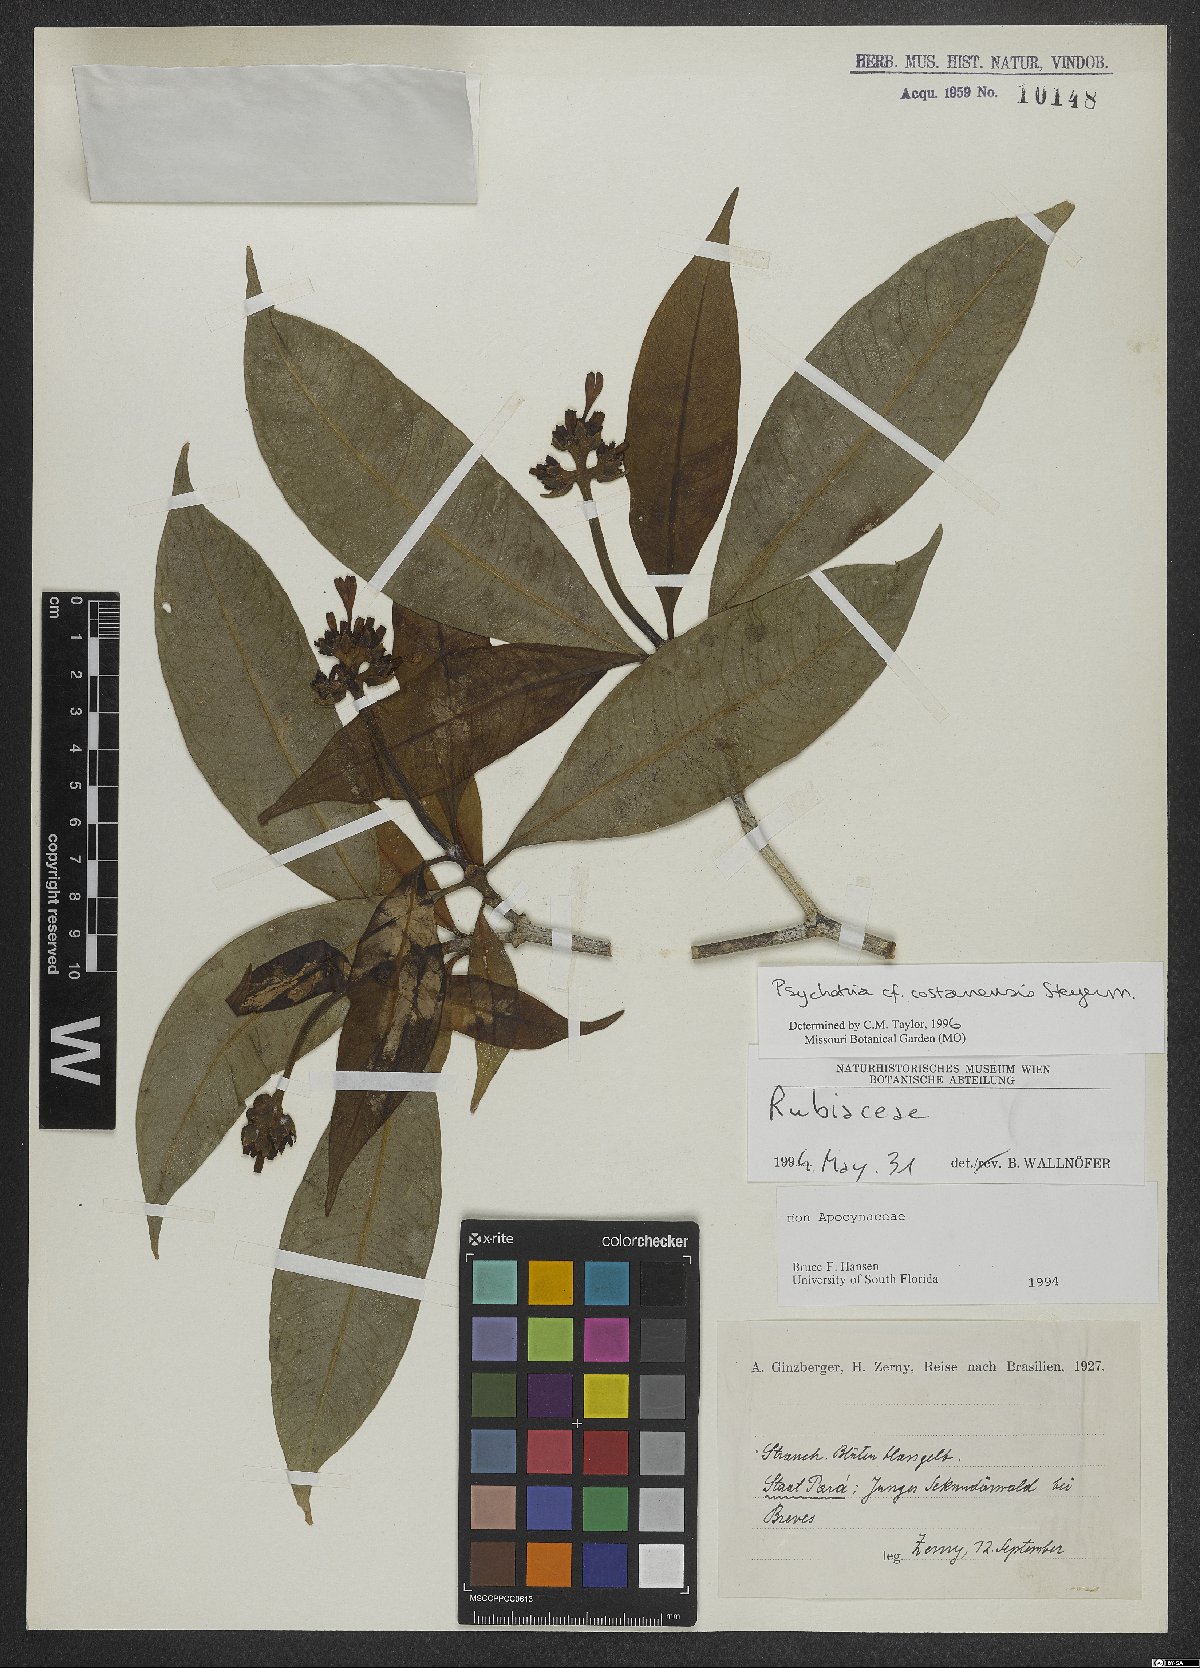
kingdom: Plantae
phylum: Tracheophyta
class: Magnoliopsida
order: Gentianales
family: Rubiaceae
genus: Palicourea
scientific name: Palicourea costanensis
